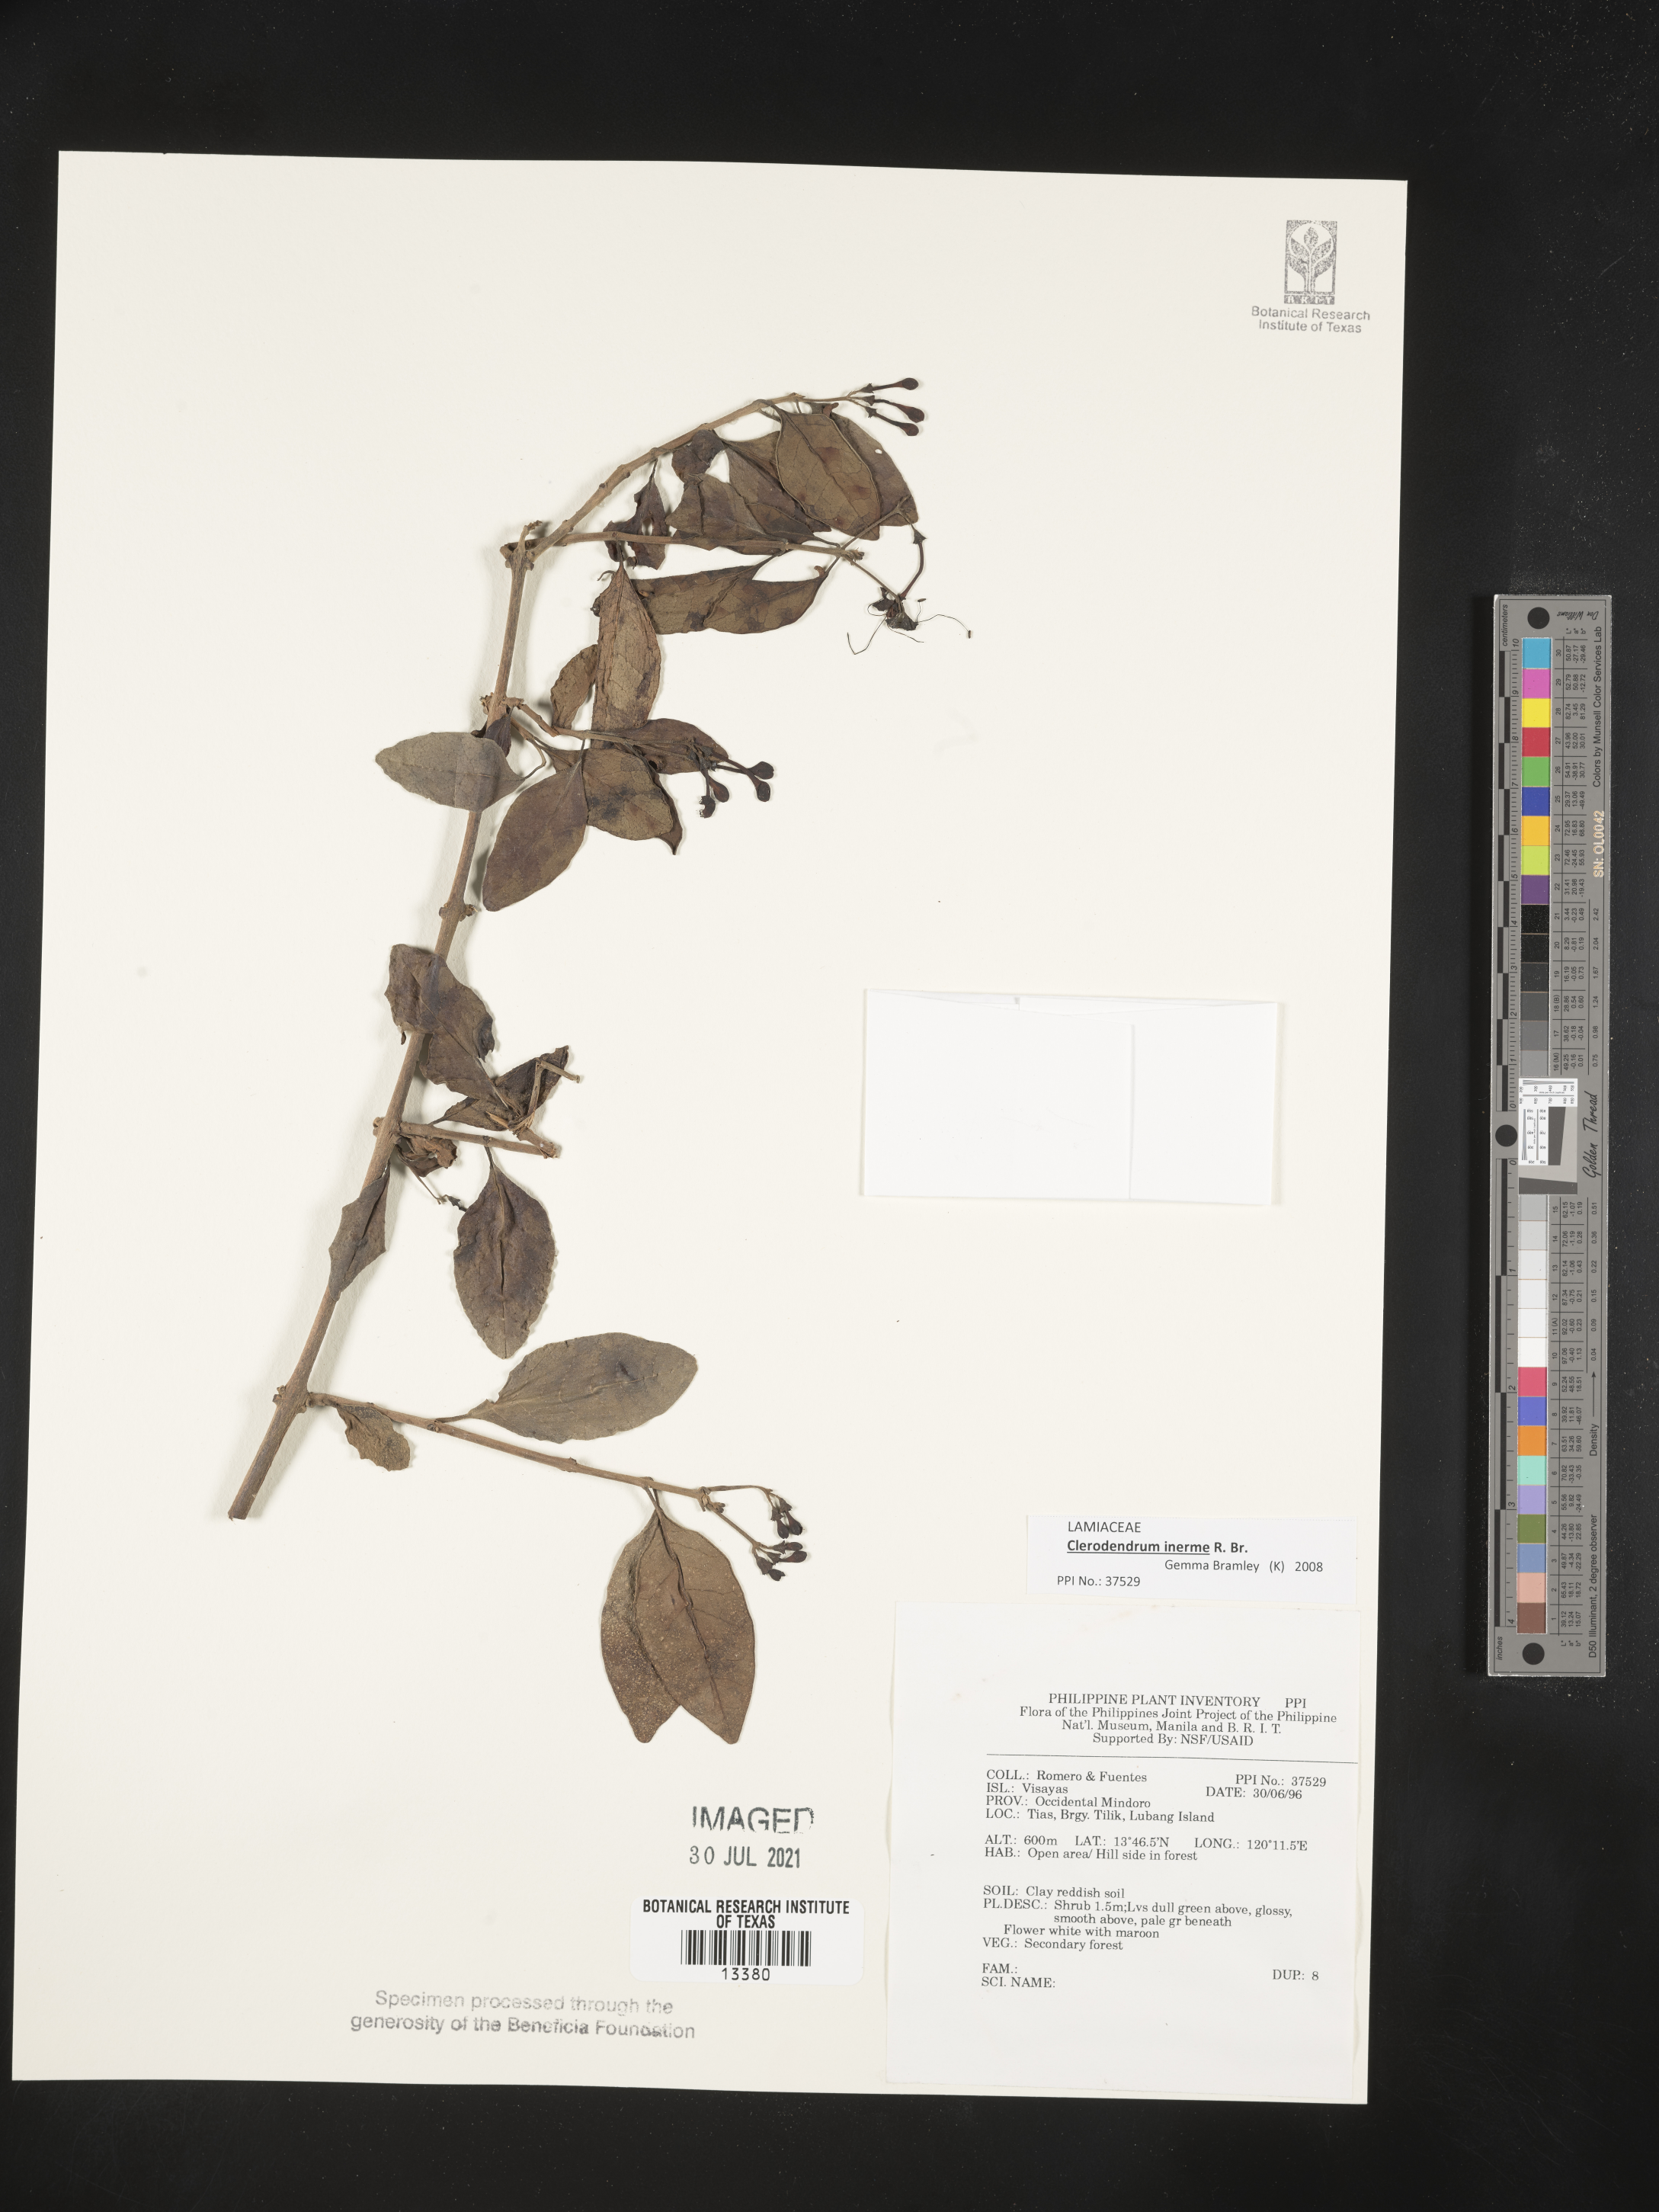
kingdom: Plantae
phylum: Tracheophyta
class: Magnoliopsida
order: Lamiales
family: Lamiaceae
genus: Volkameria
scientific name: Volkameria inermis
